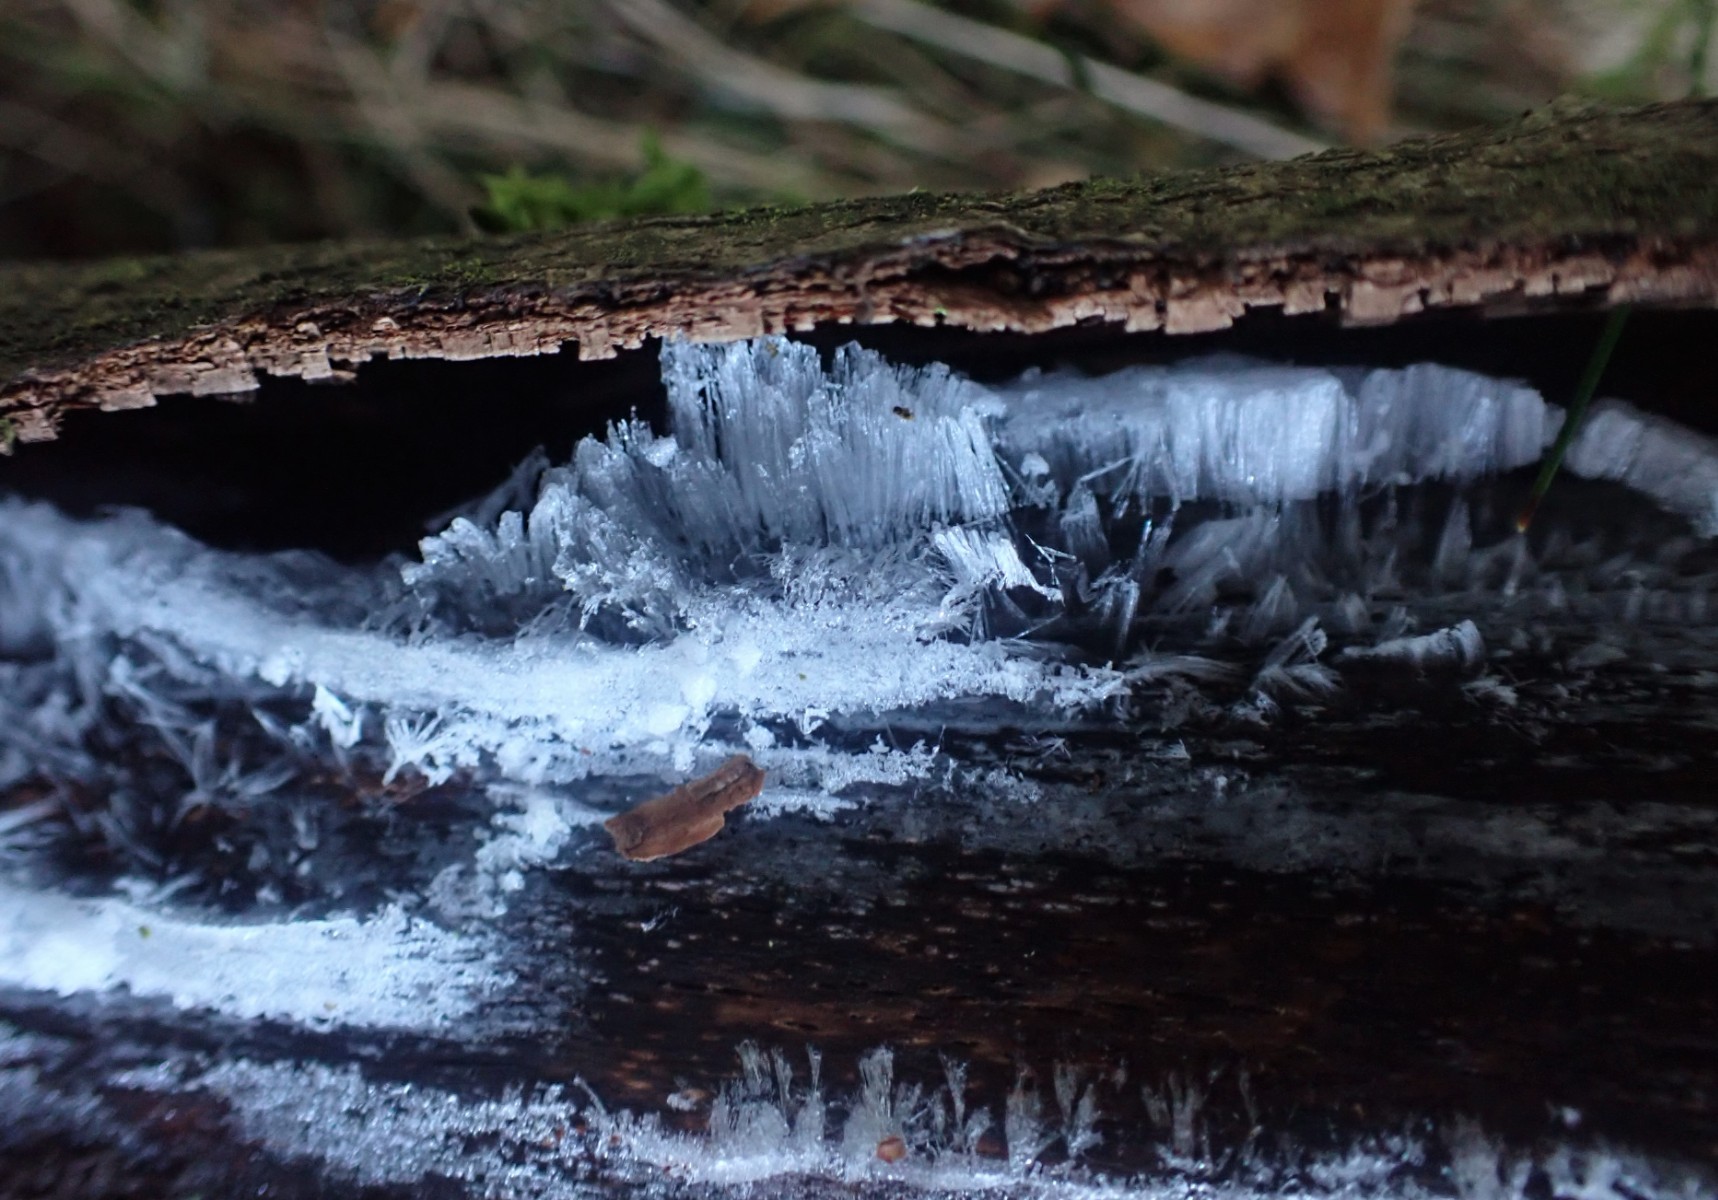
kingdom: Fungi
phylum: Basidiomycota
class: Tremellomycetes
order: Tremellales
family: Exidiaceae
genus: Exidiopsis
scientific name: Exidiopsis effusa
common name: smuk bævrehinde
